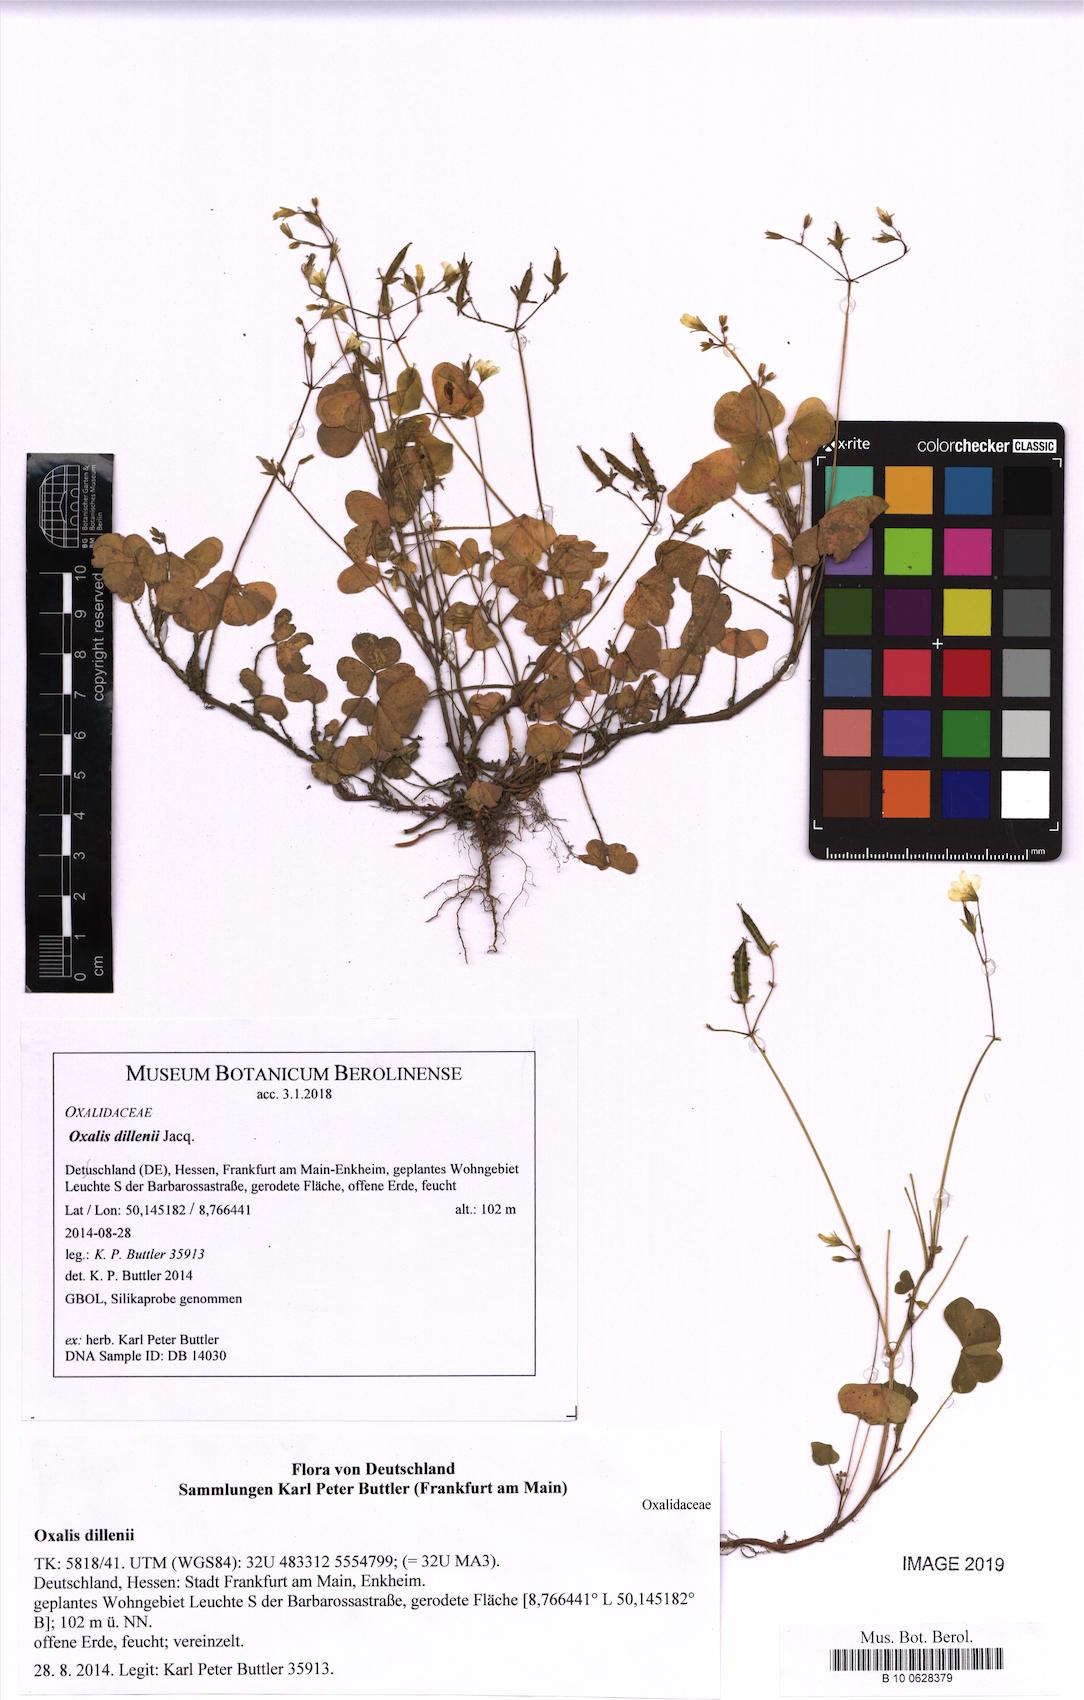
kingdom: Plantae
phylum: Tracheophyta
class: Magnoliopsida
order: Oxalidales
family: Oxalidaceae
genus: Oxalis
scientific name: Oxalis dillenii
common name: Sussex yellow-sorrel
